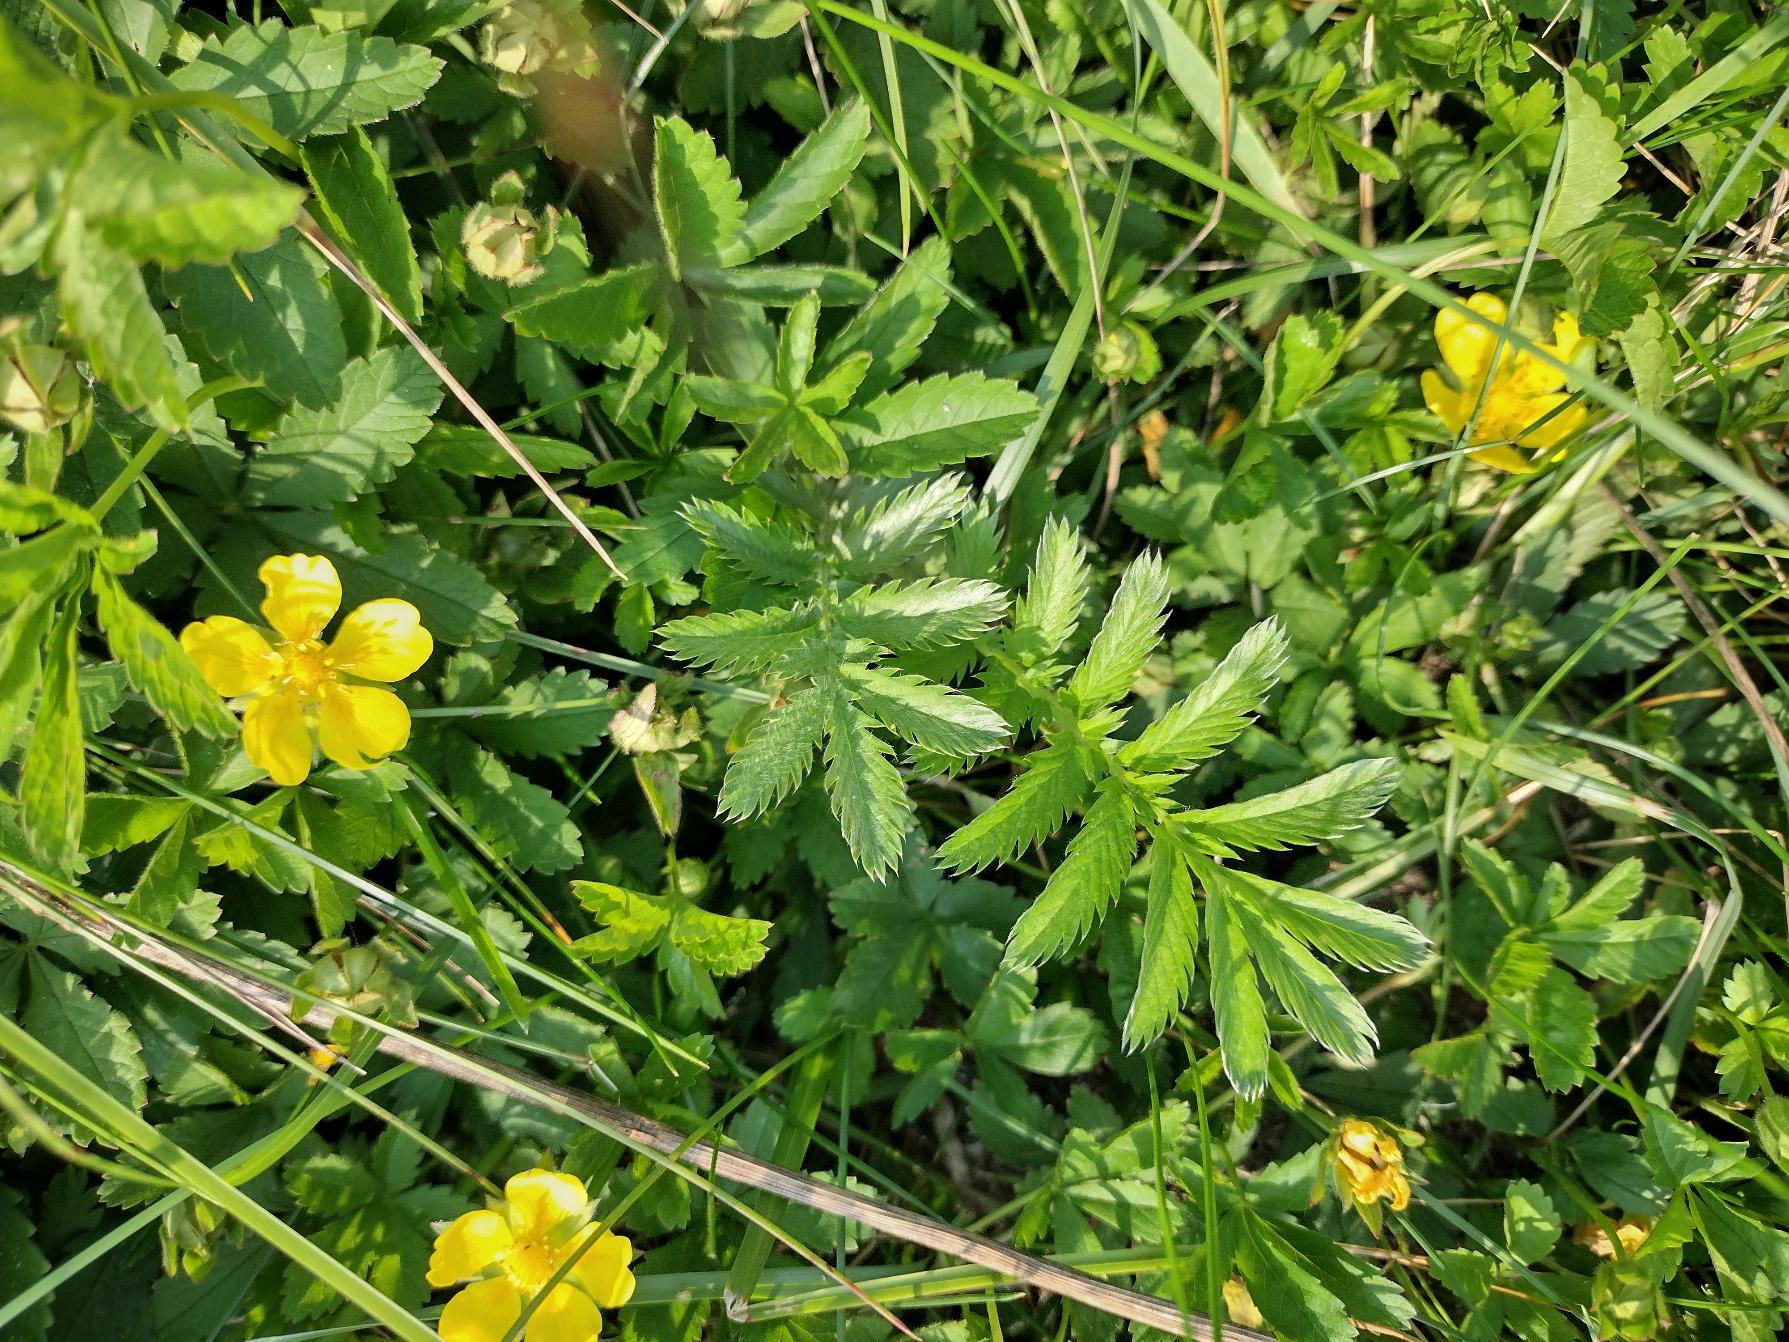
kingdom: Plantae
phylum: Tracheophyta
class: Magnoliopsida
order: Rosales
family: Rosaceae
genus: Argentina
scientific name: Argentina anserina
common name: Gåsepotentil
